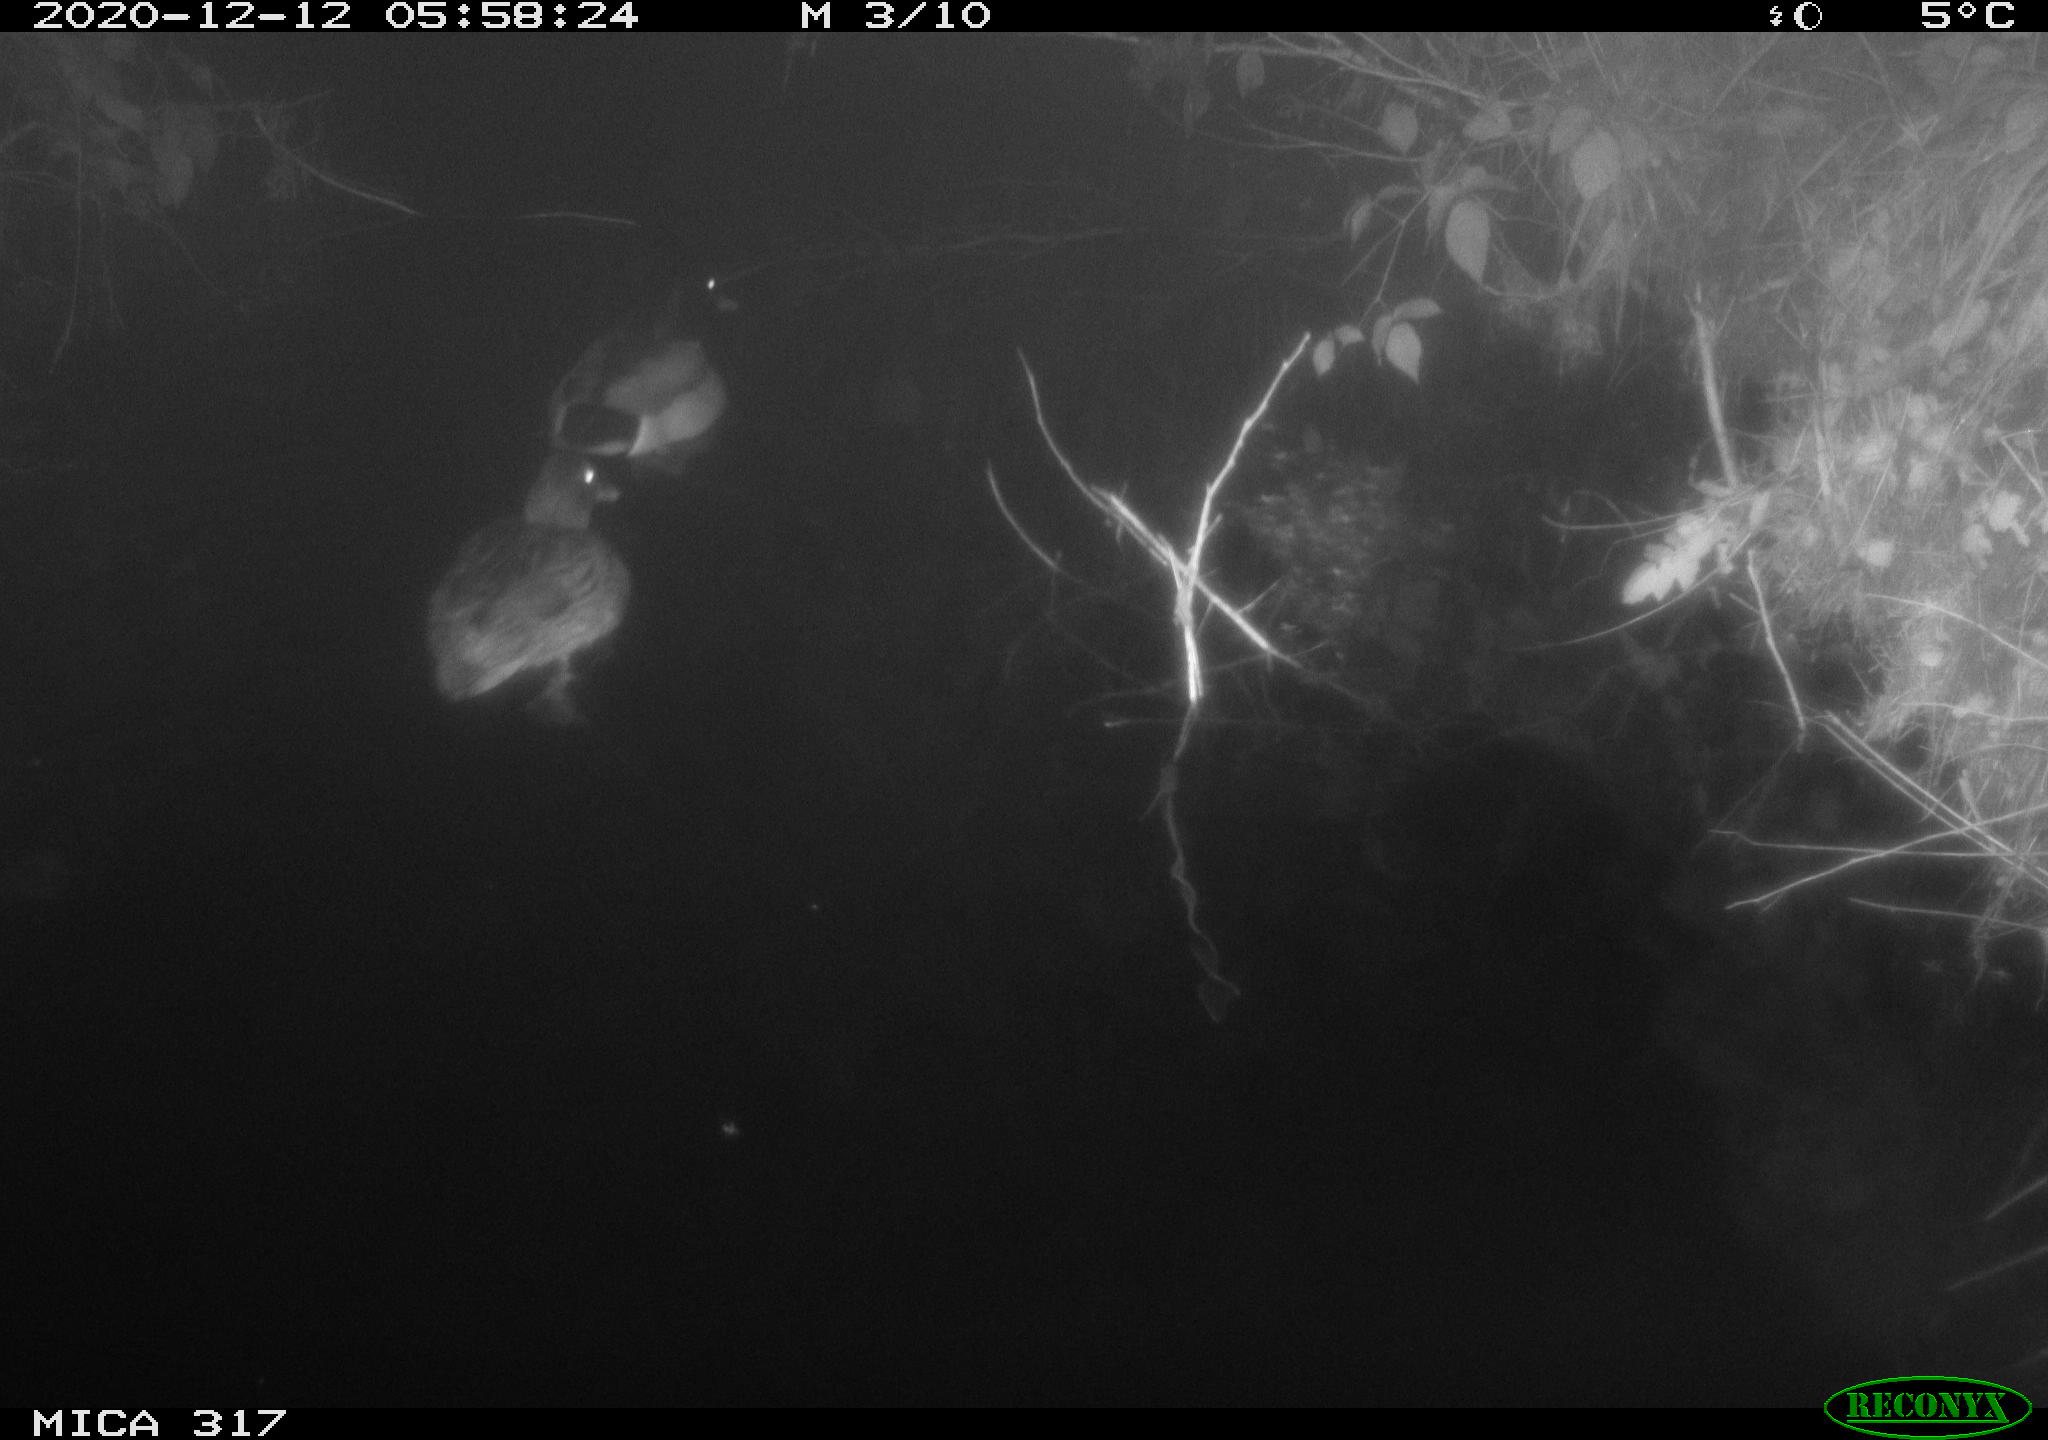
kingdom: Animalia
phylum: Chordata
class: Aves
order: Anseriformes
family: Anatidae
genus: Anas
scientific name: Anas platyrhynchos
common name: Mallard
